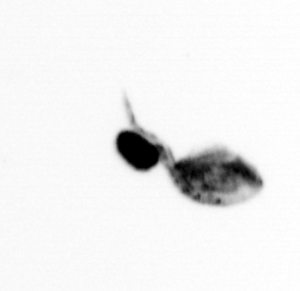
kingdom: Animalia
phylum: Arthropoda
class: Copepoda
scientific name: Copepoda
